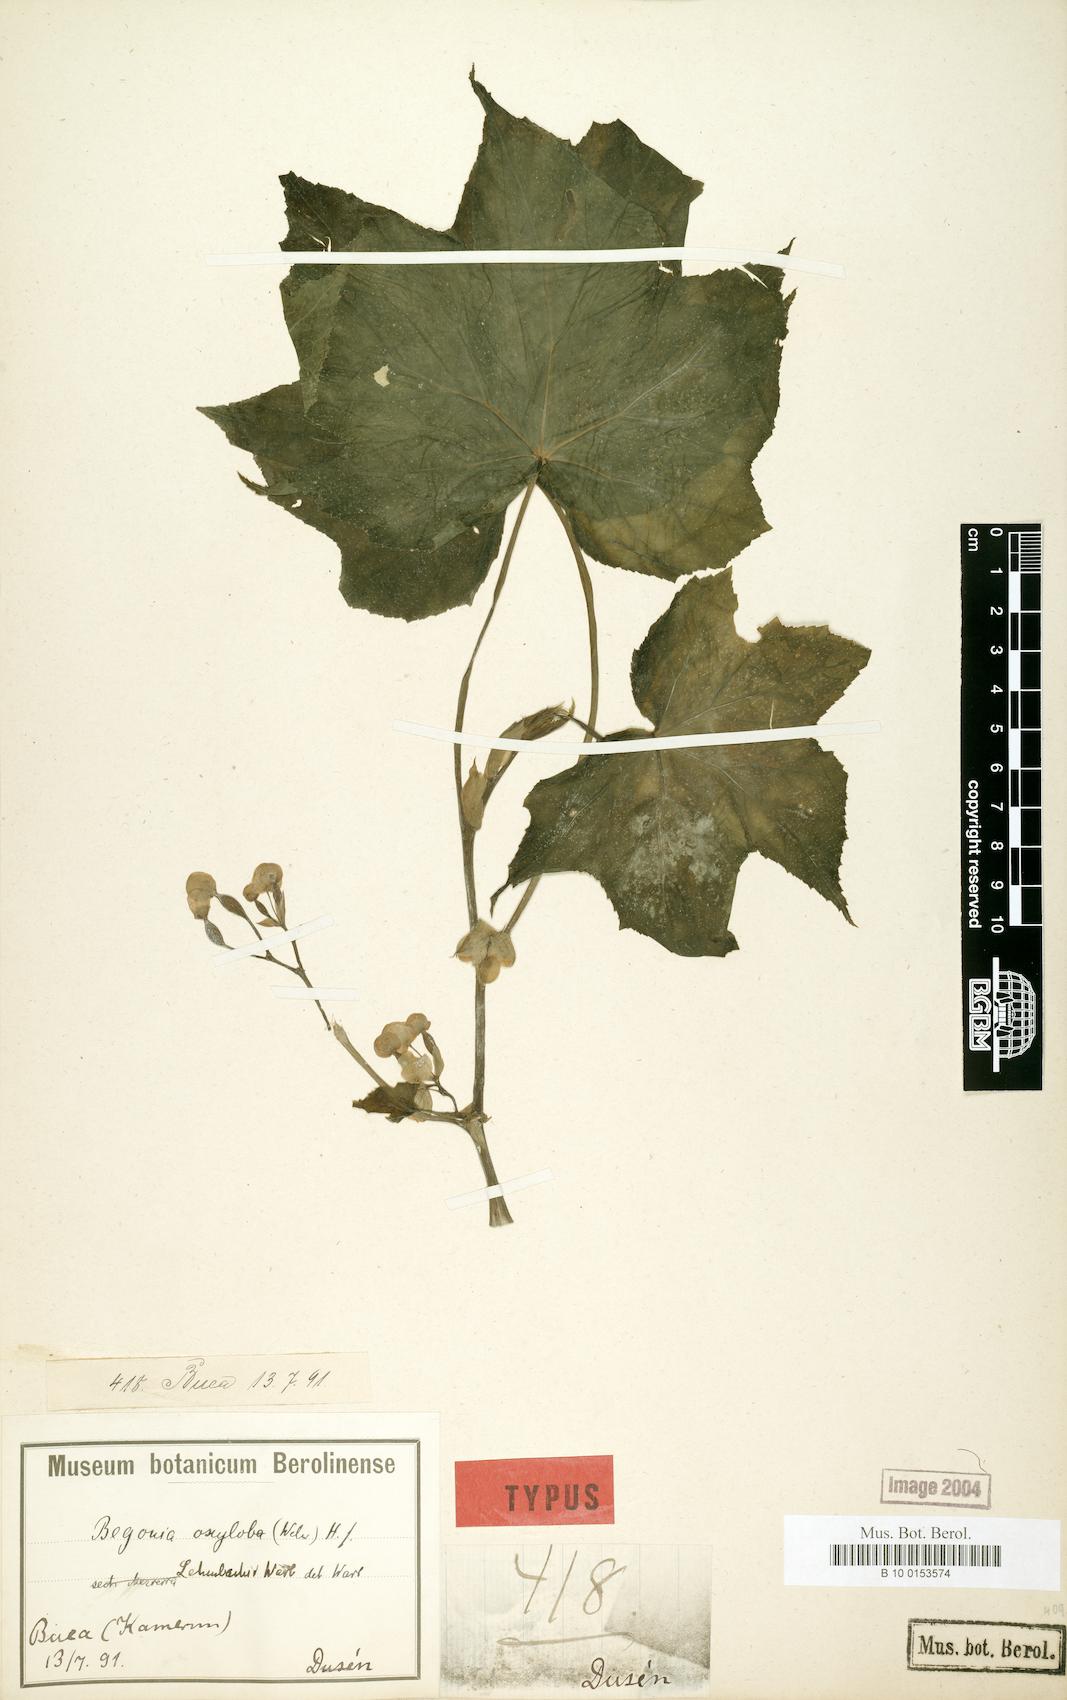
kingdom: Plantae
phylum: Tracheophyta
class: Magnoliopsida
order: Cucurbitales
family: Begoniaceae
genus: Begonia
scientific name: Begonia oxyloba
